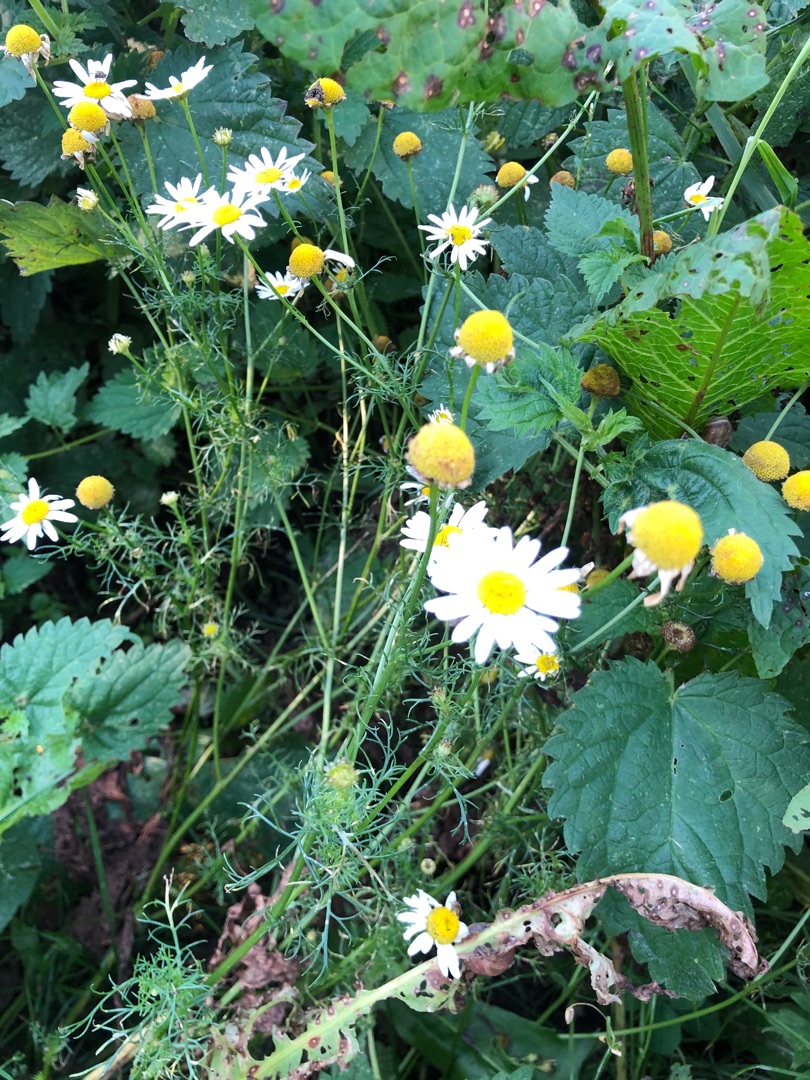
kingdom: Plantae
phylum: Tracheophyta
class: Magnoliopsida
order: Asterales
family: Asteraceae
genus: Tripleurospermum
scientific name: Tripleurospermum inodorum
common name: Lugtløs kamille
